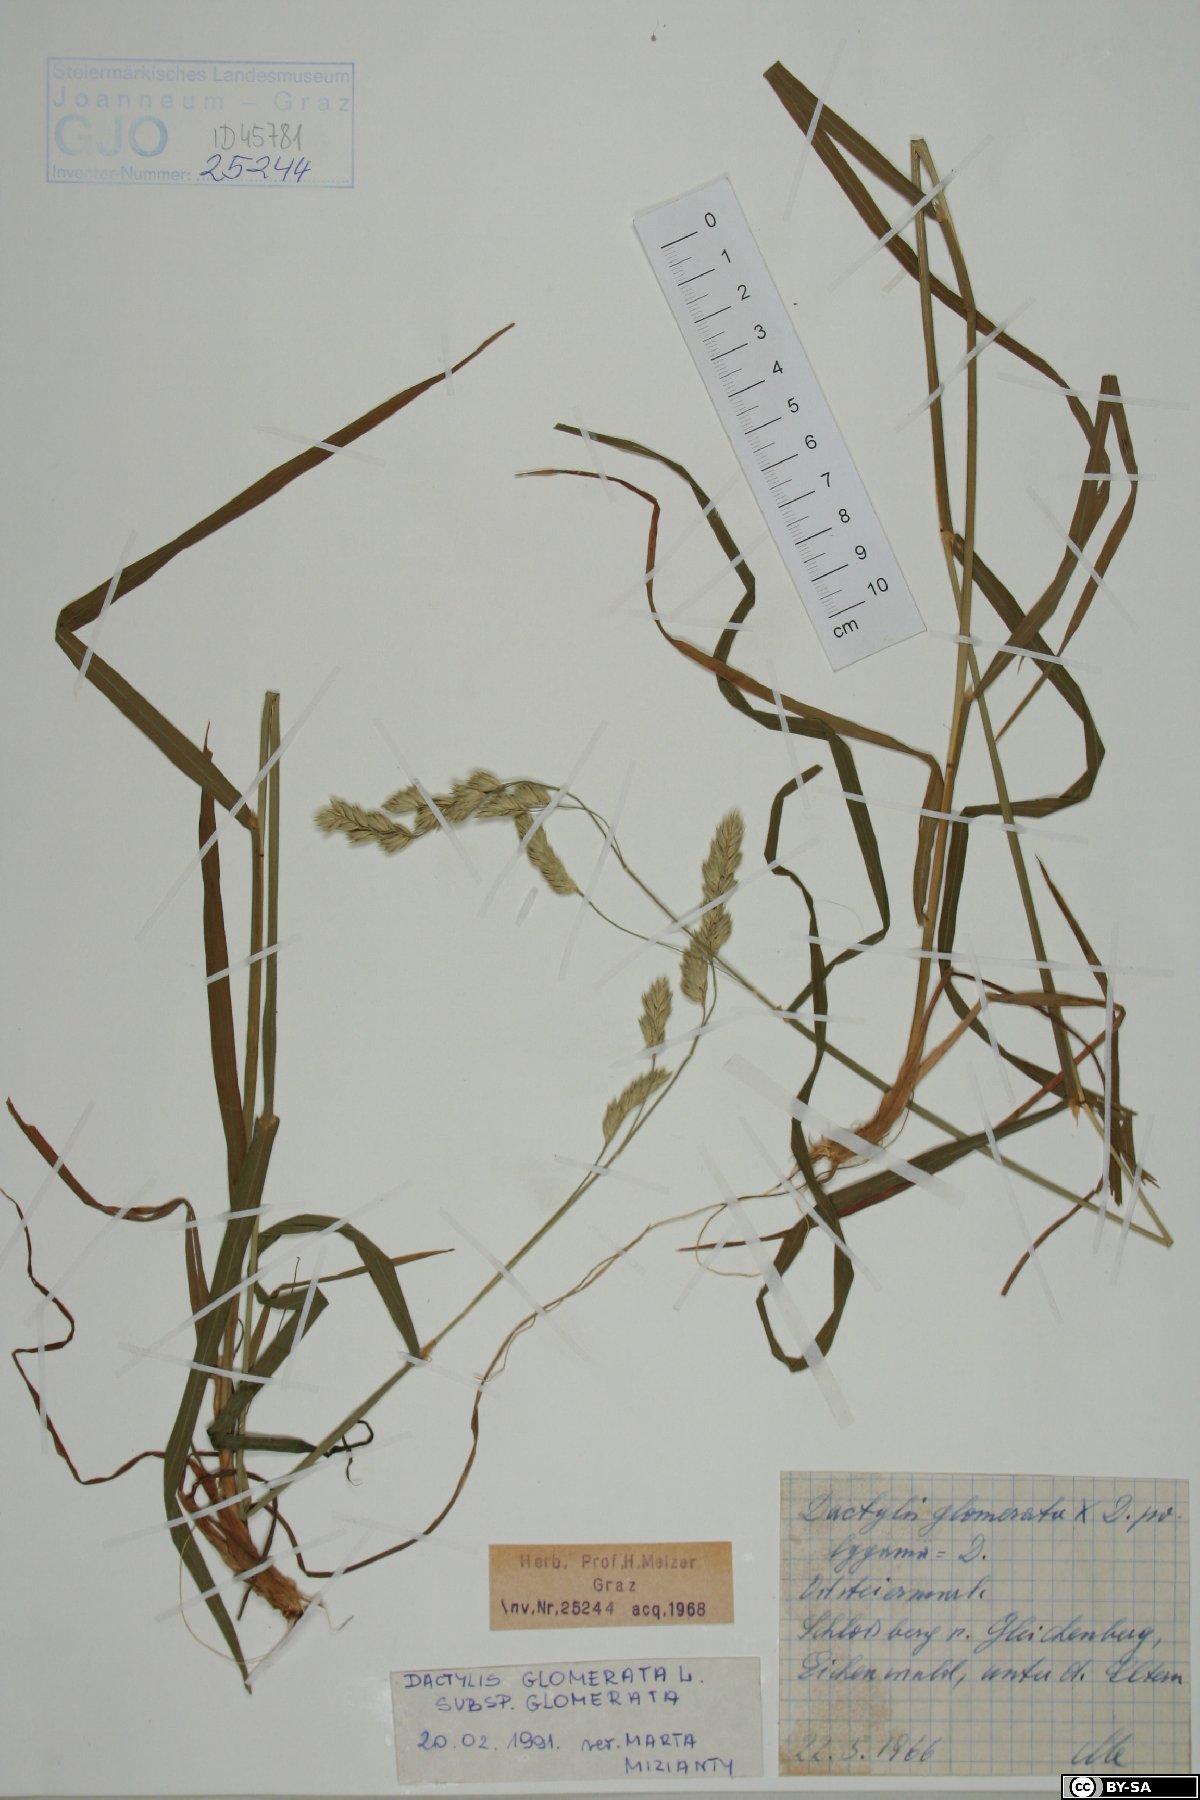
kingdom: Plantae
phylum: Tracheophyta
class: Liliopsida
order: Poales
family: Poaceae
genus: Dactylis
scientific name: Dactylis glomerata
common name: Orchardgrass
